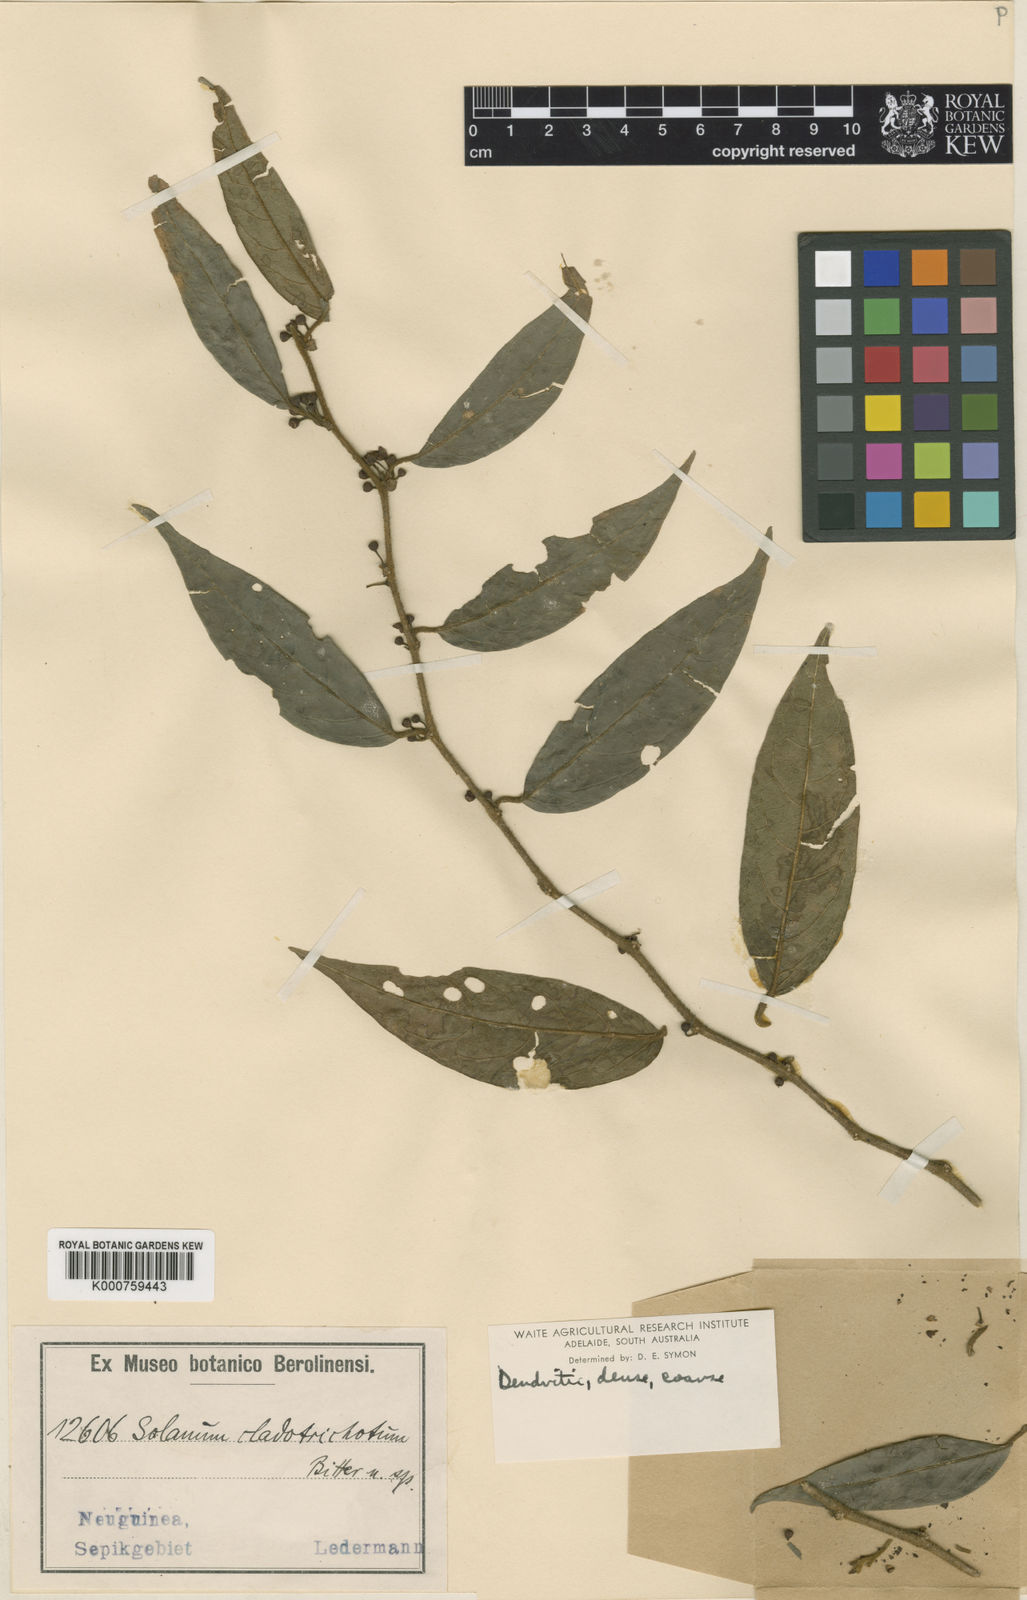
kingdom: Plantae
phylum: Tracheophyta
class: Magnoliopsida
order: Solanales
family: Solanaceae
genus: Lycianthes
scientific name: Lycianthes cladotrichota
